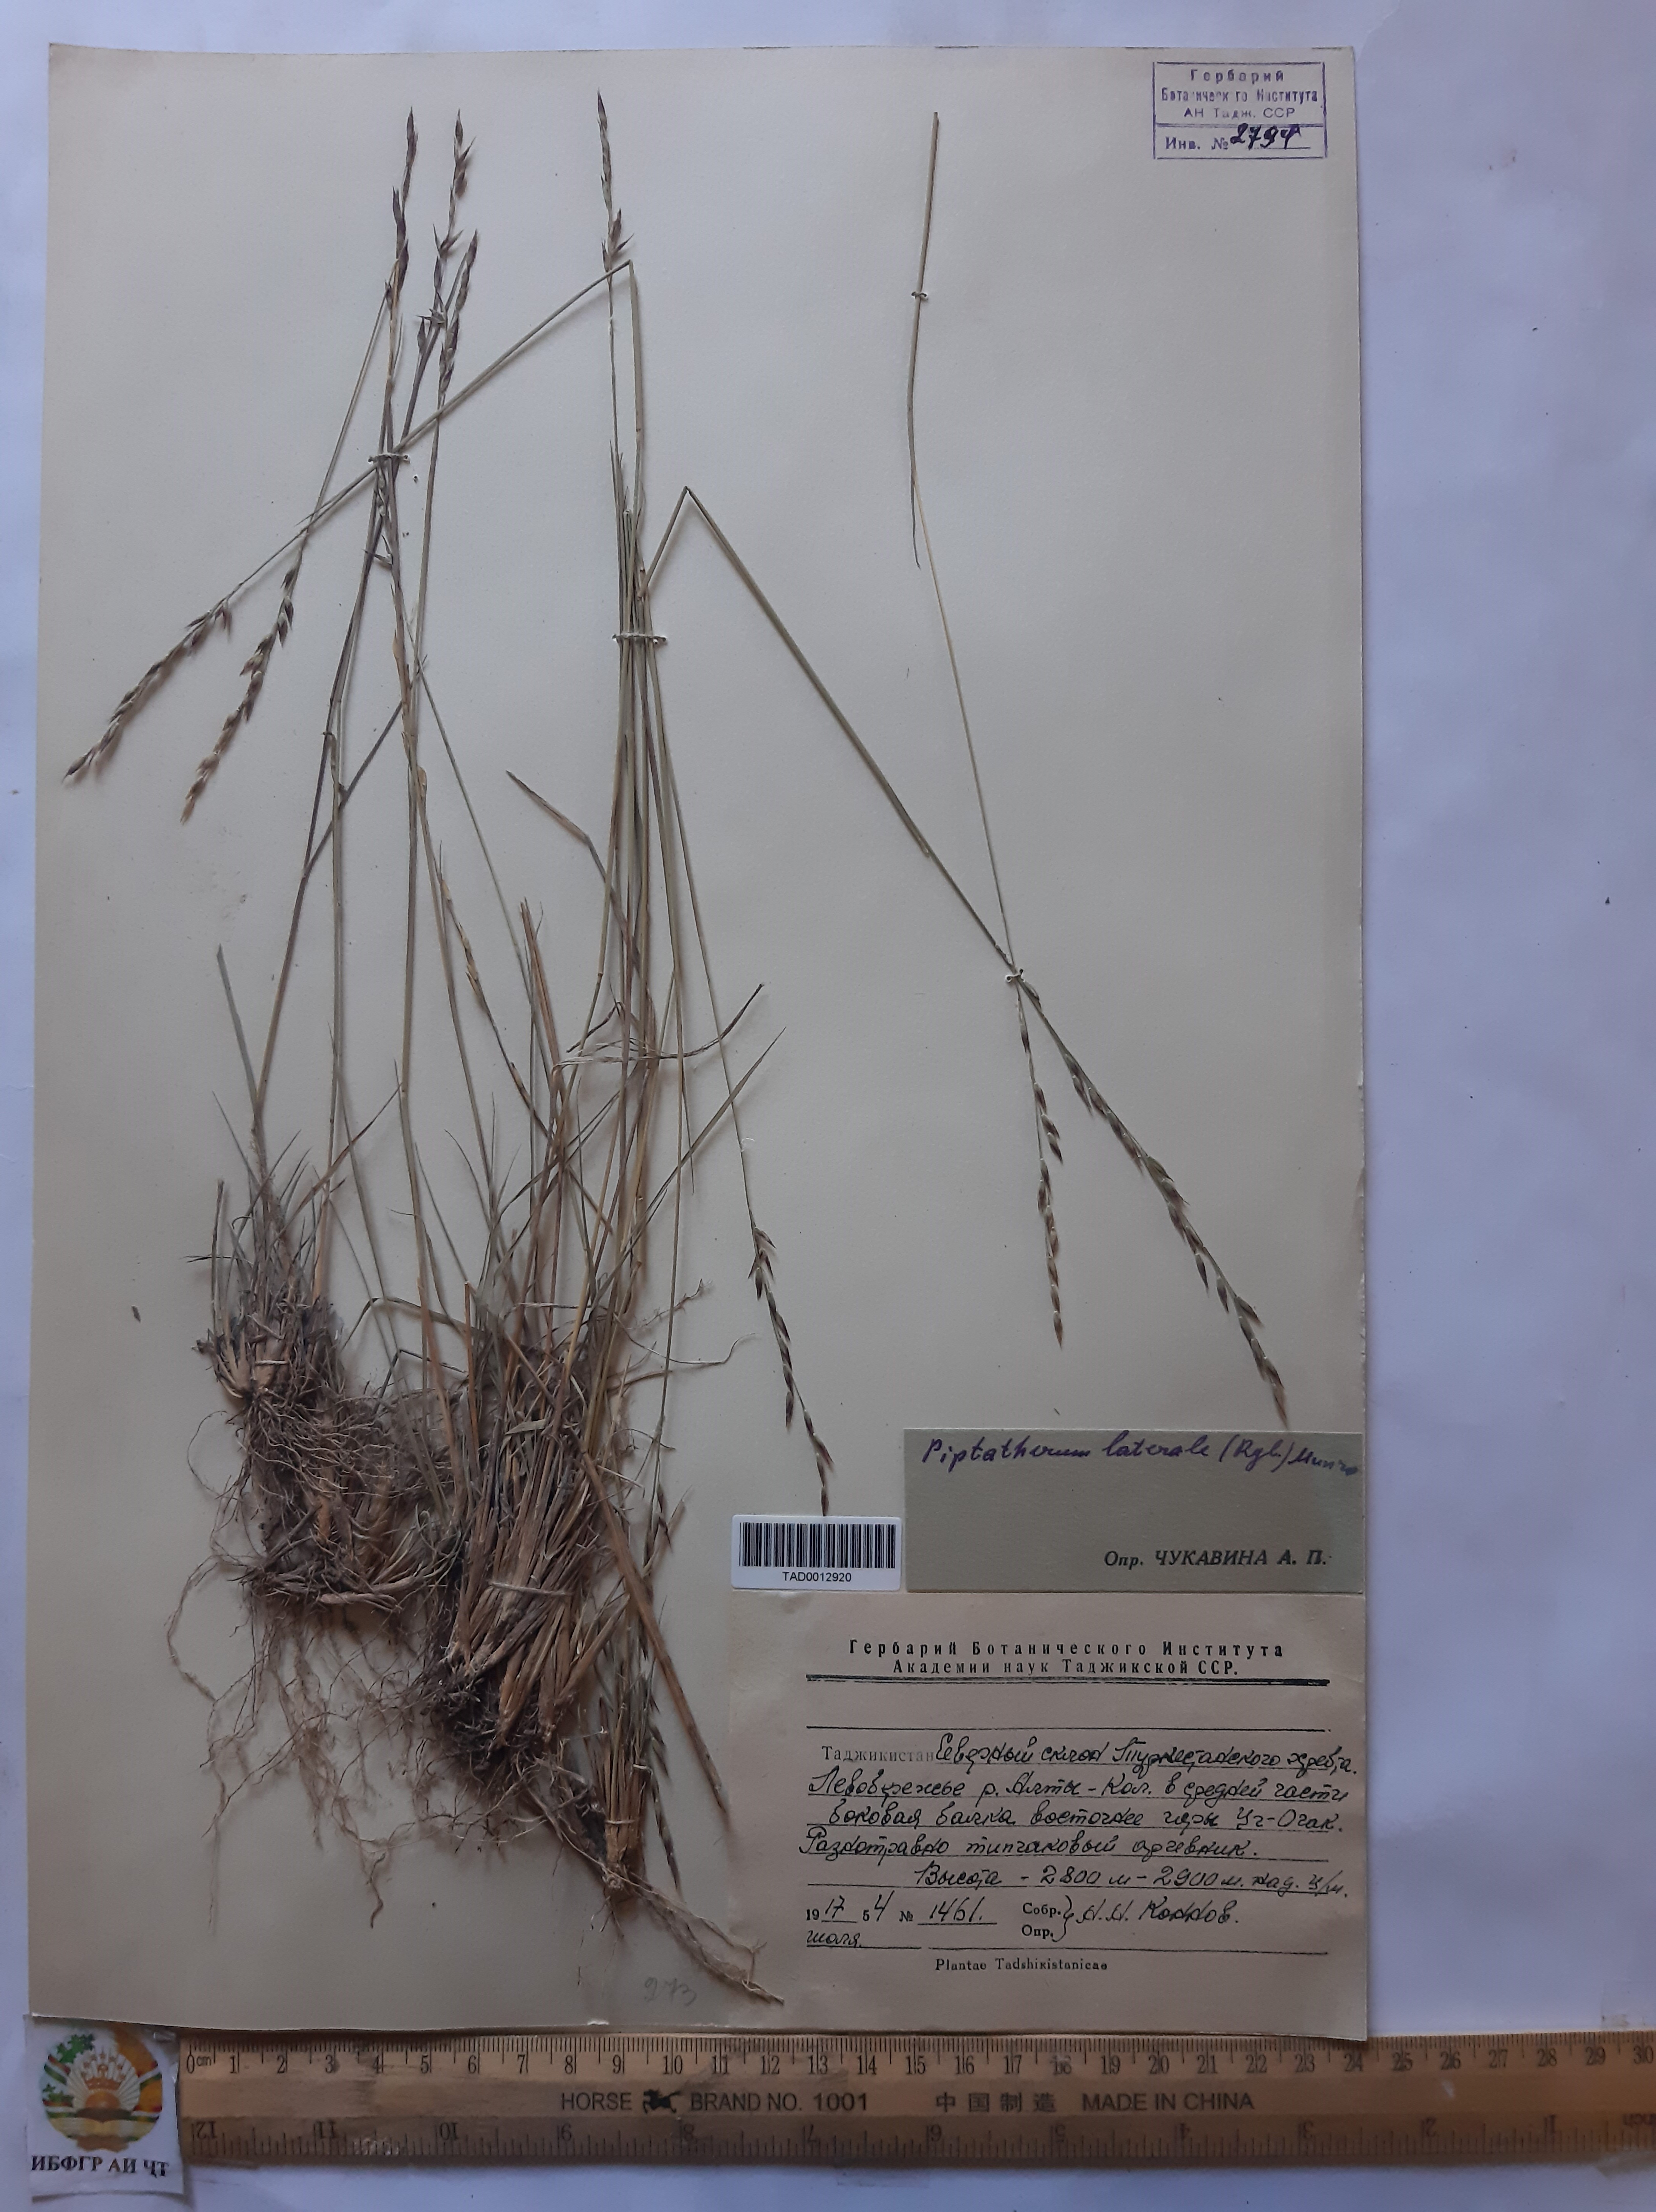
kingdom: Plantae
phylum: Tracheophyta
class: Liliopsida
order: Poales
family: Poaceae
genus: Piptatherum
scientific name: Piptatherum laterale
